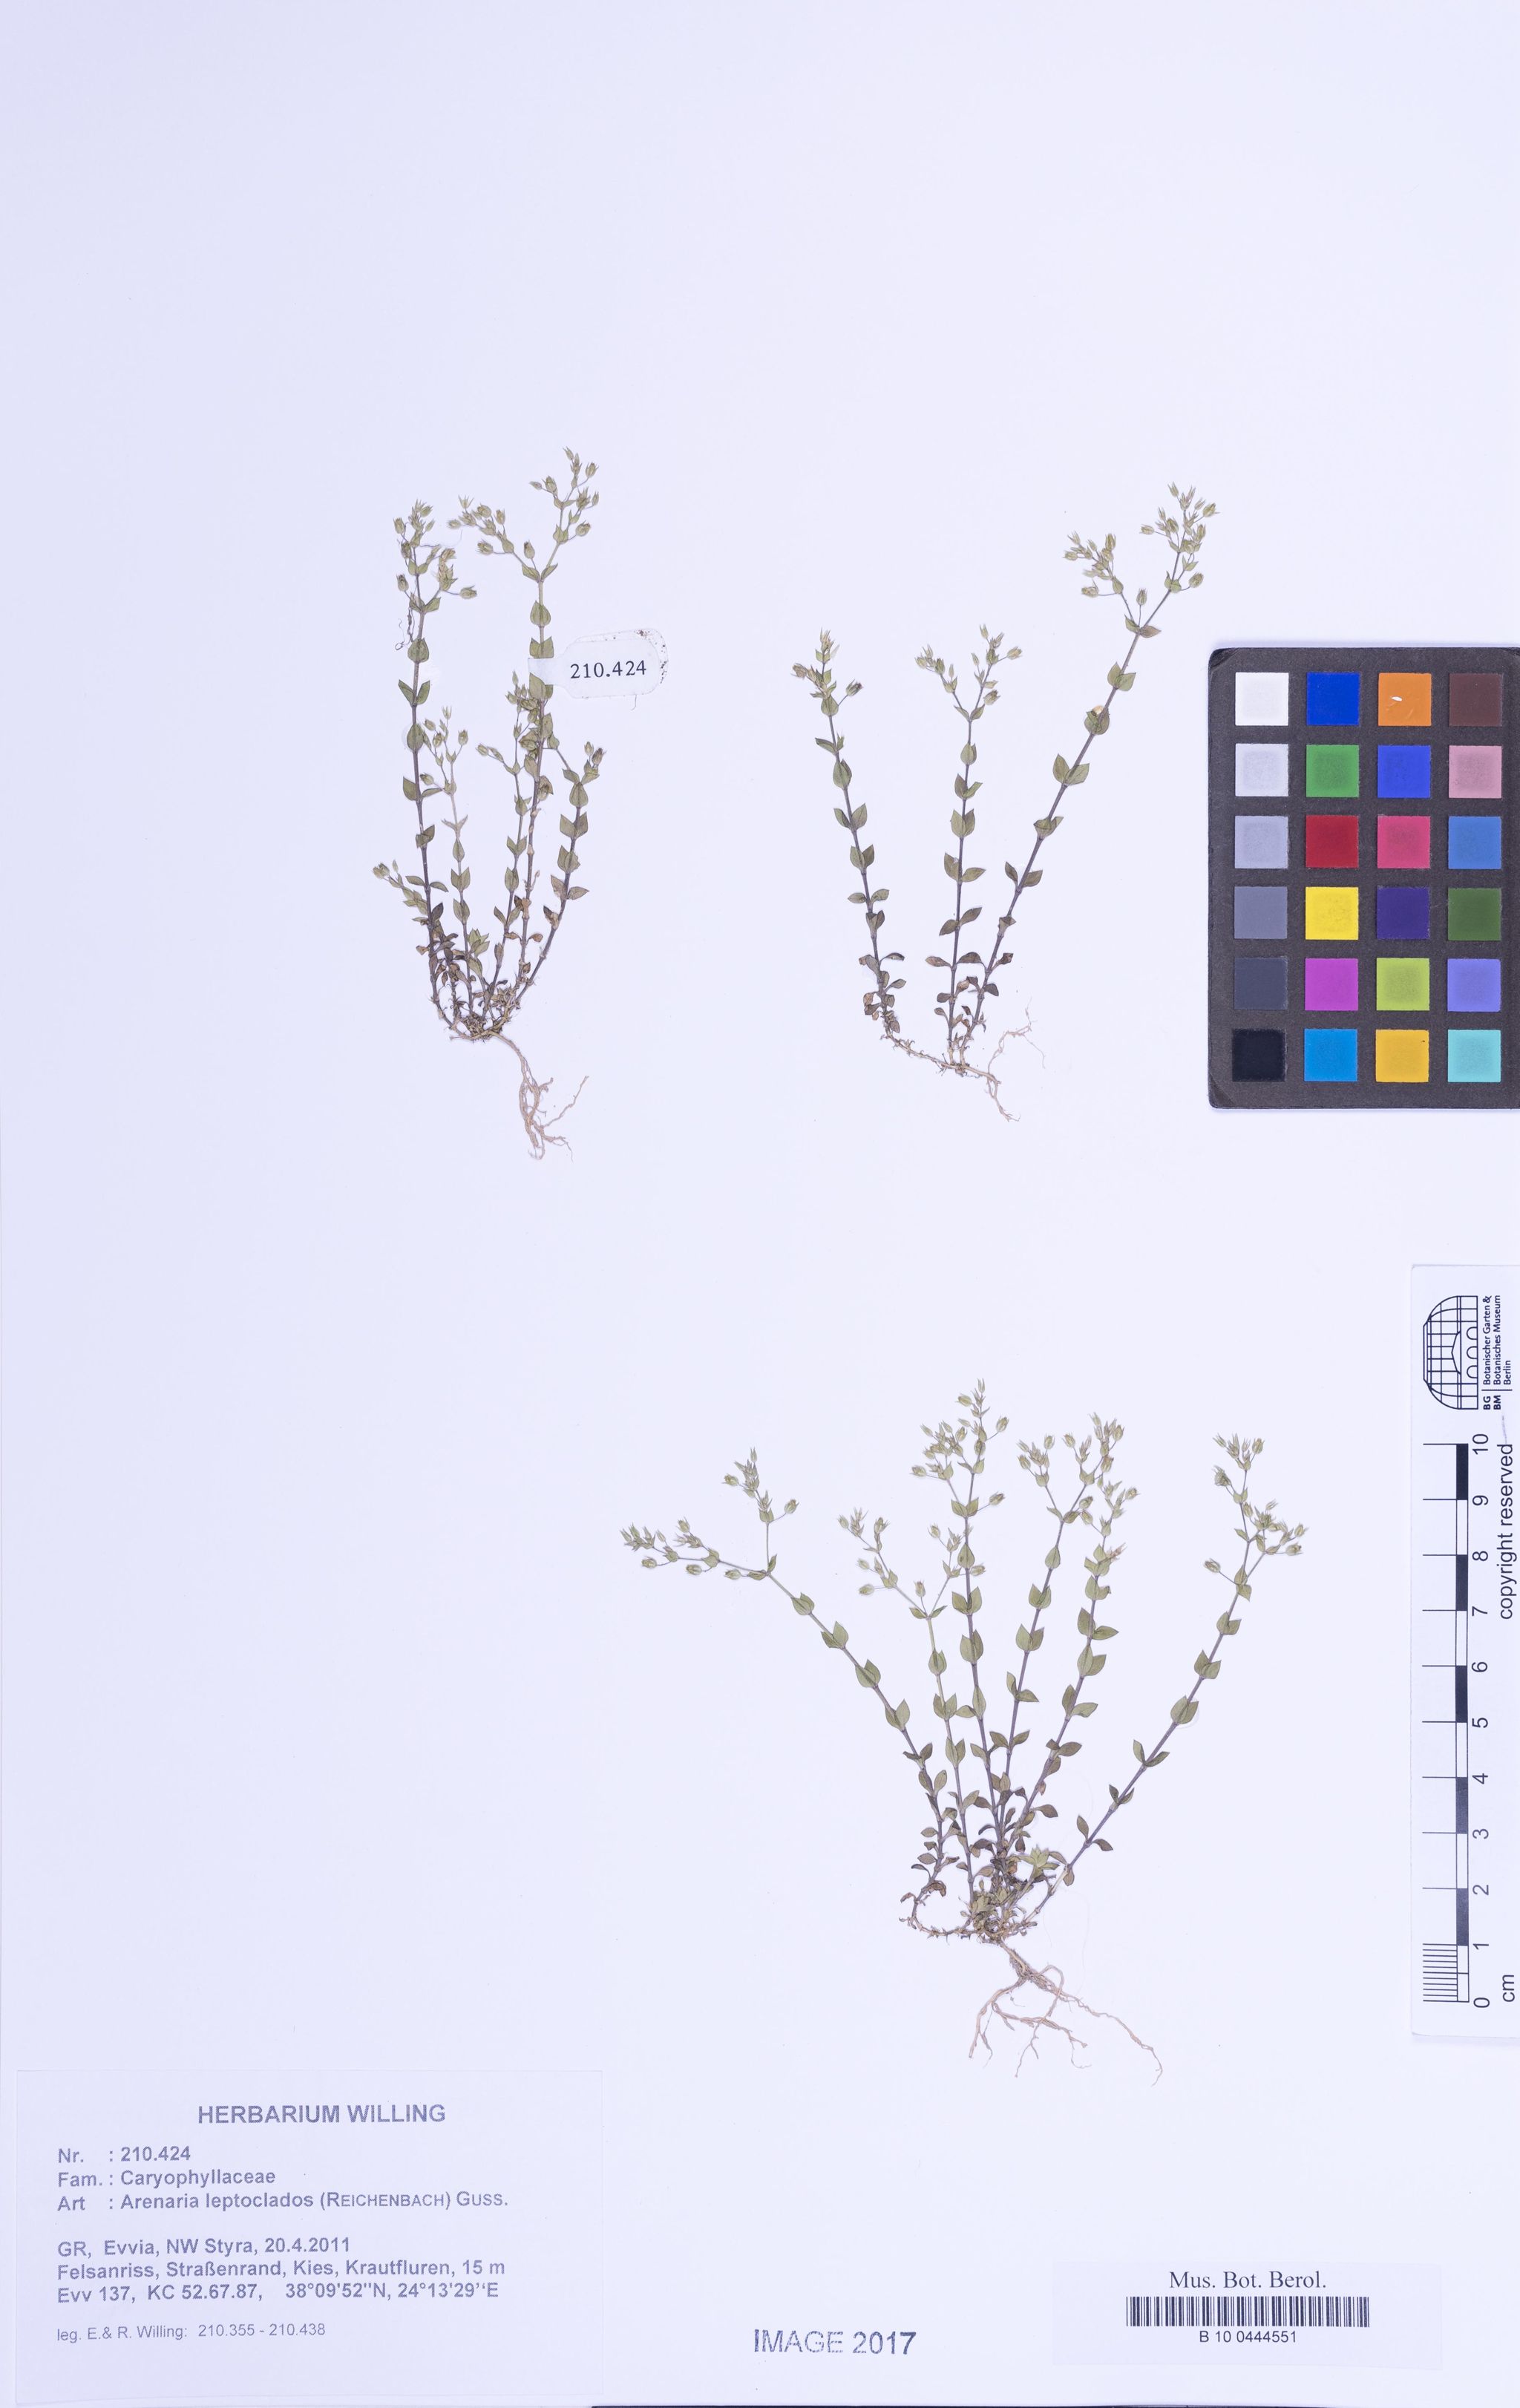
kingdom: Plantae
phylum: Tracheophyta
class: Magnoliopsida
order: Caryophyllales
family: Caryophyllaceae
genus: Arenaria
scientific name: Arenaria leptoclados
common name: Thyme-leaved sandwort
